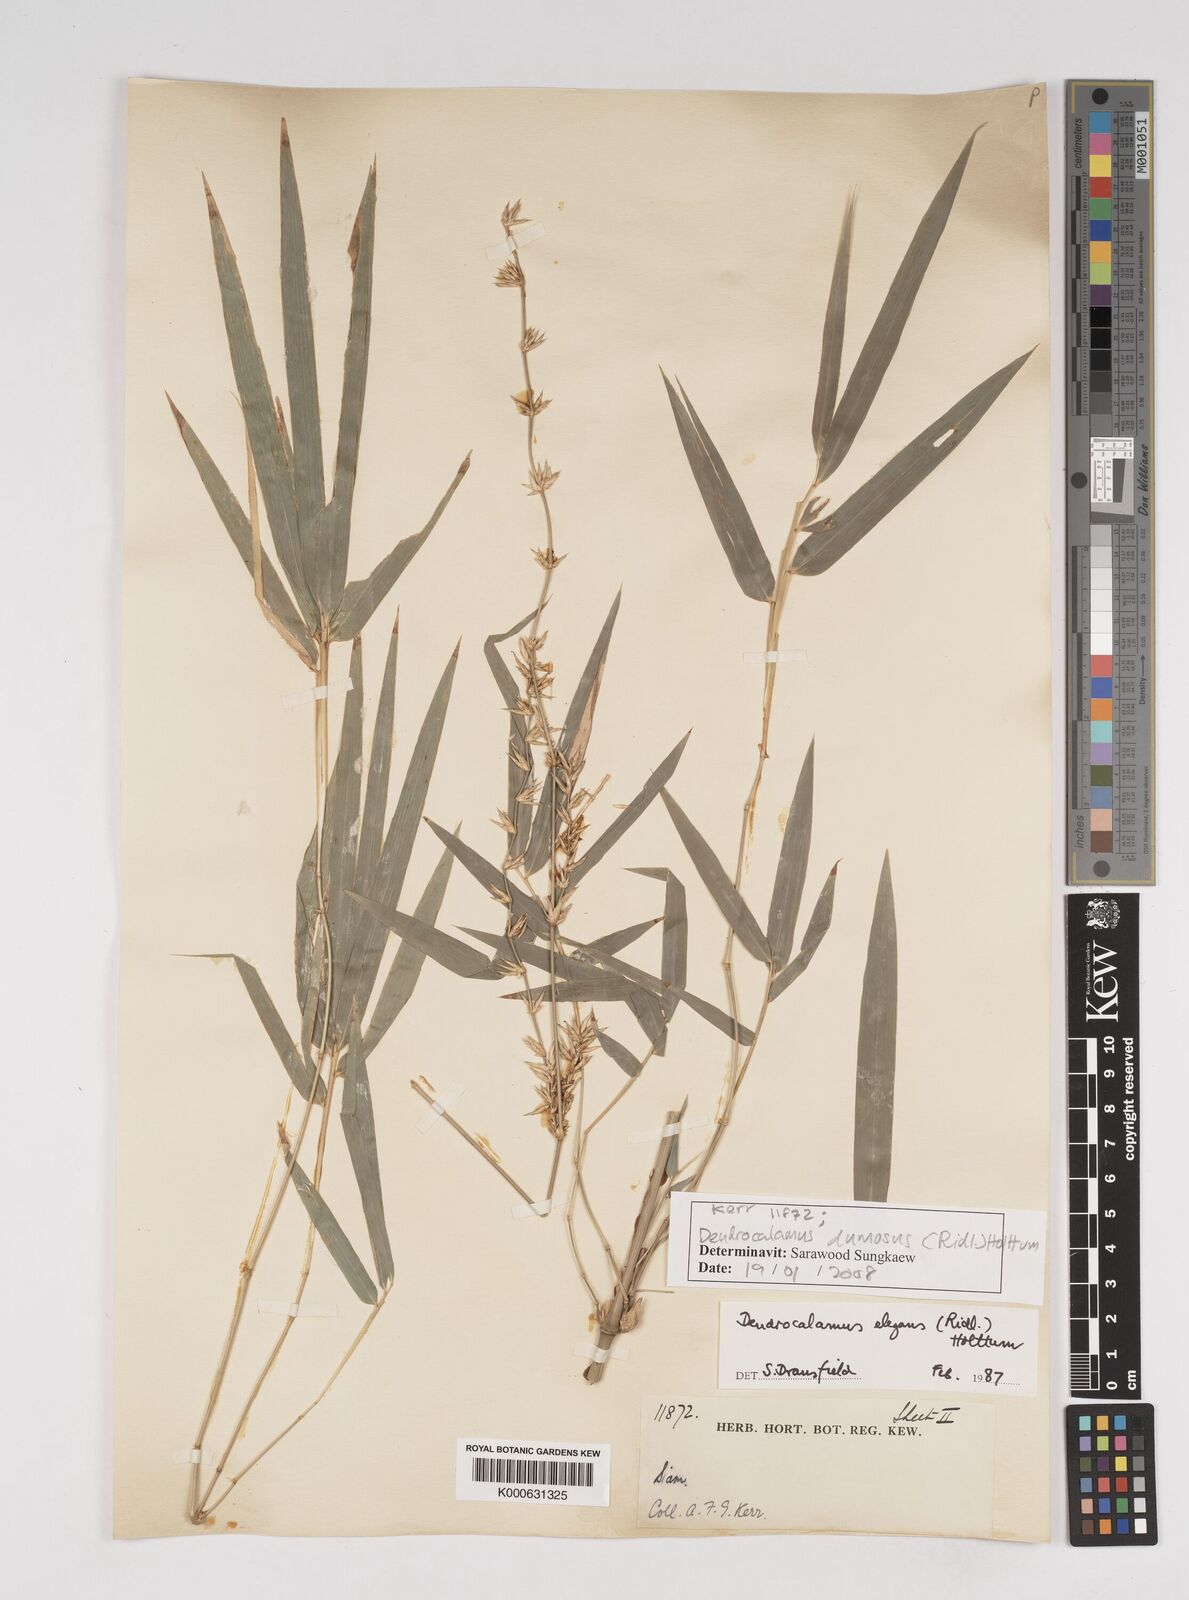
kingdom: Plantae
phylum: Tracheophyta
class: Liliopsida
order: Poales
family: Poaceae
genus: Dendrocalamus
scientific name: Dendrocalamus dumosus
